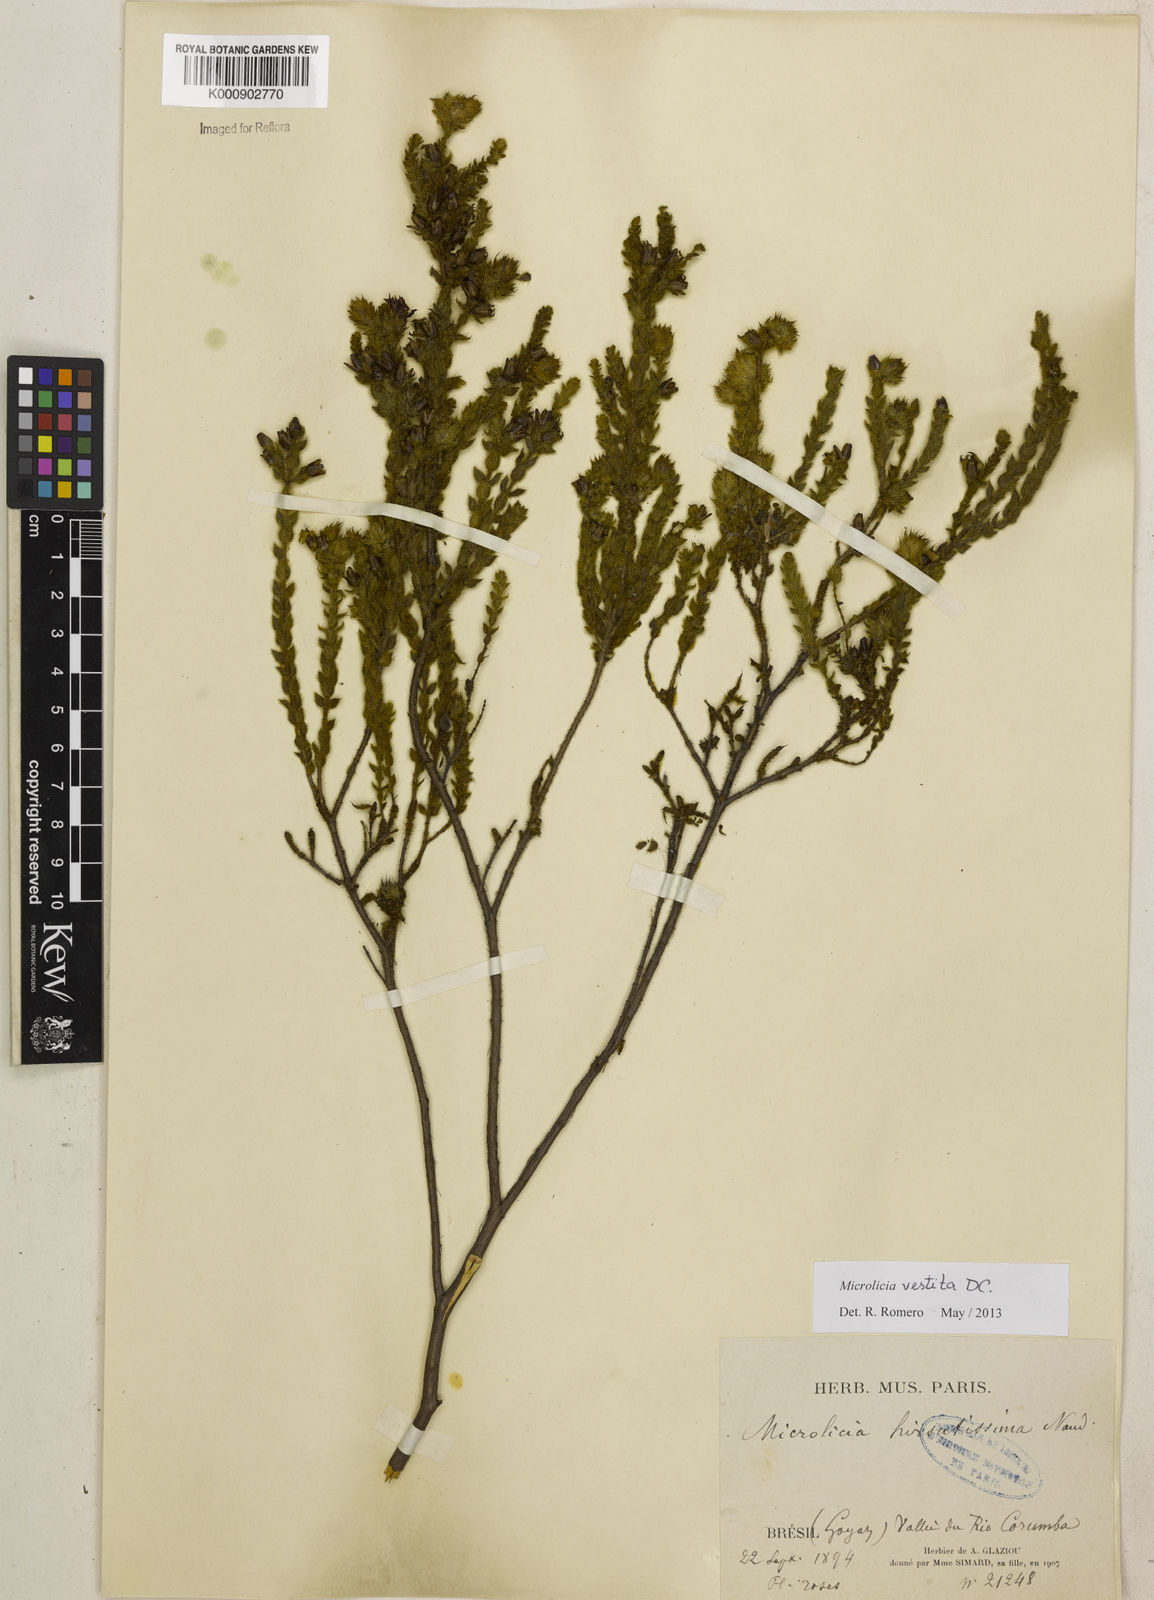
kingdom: Plantae
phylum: Tracheophyta
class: Magnoliopsida
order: Myrtales
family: Melastomataceae
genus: Microlicia
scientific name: Microlicia vestita
